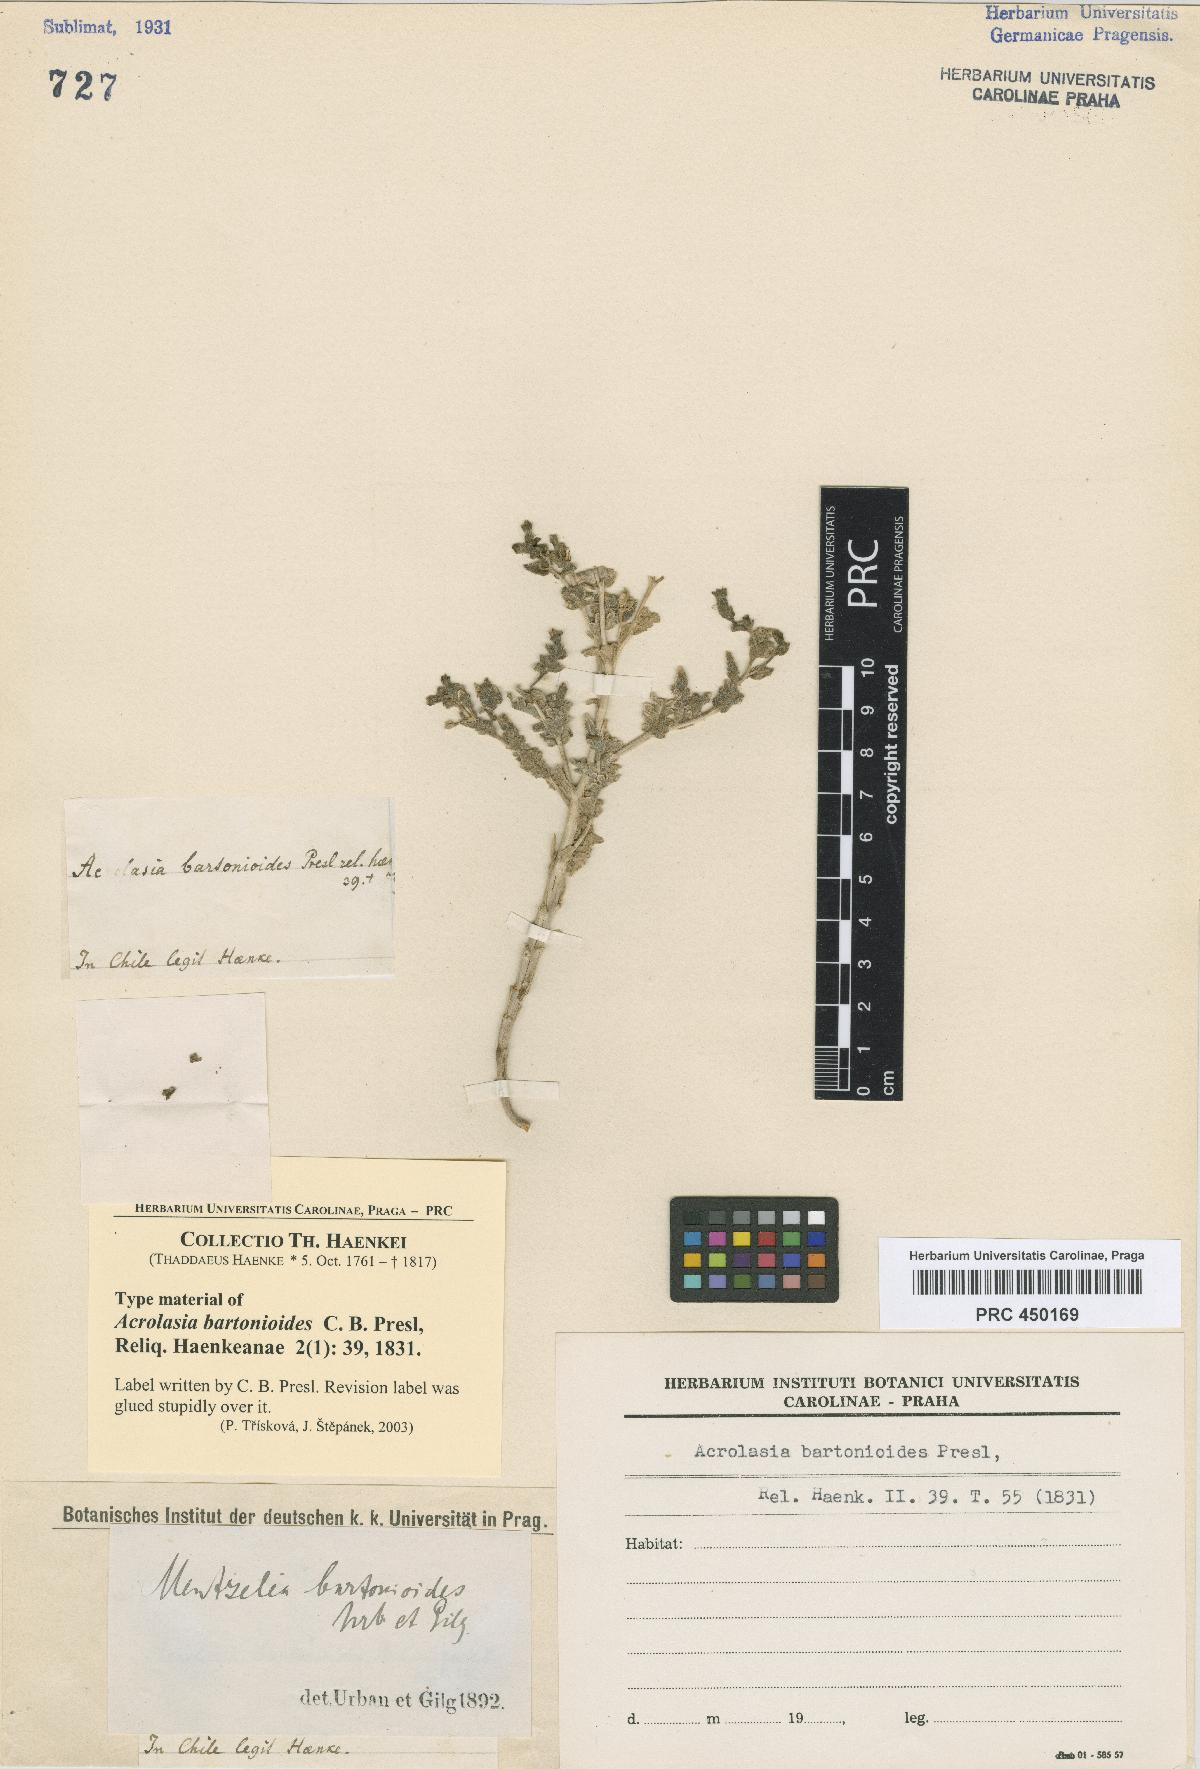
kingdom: Plantae
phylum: Tracheophyta
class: Magnoliopsida
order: Cornales
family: Loasaceae
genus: Mentzelia
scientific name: Mentzelia solieri
